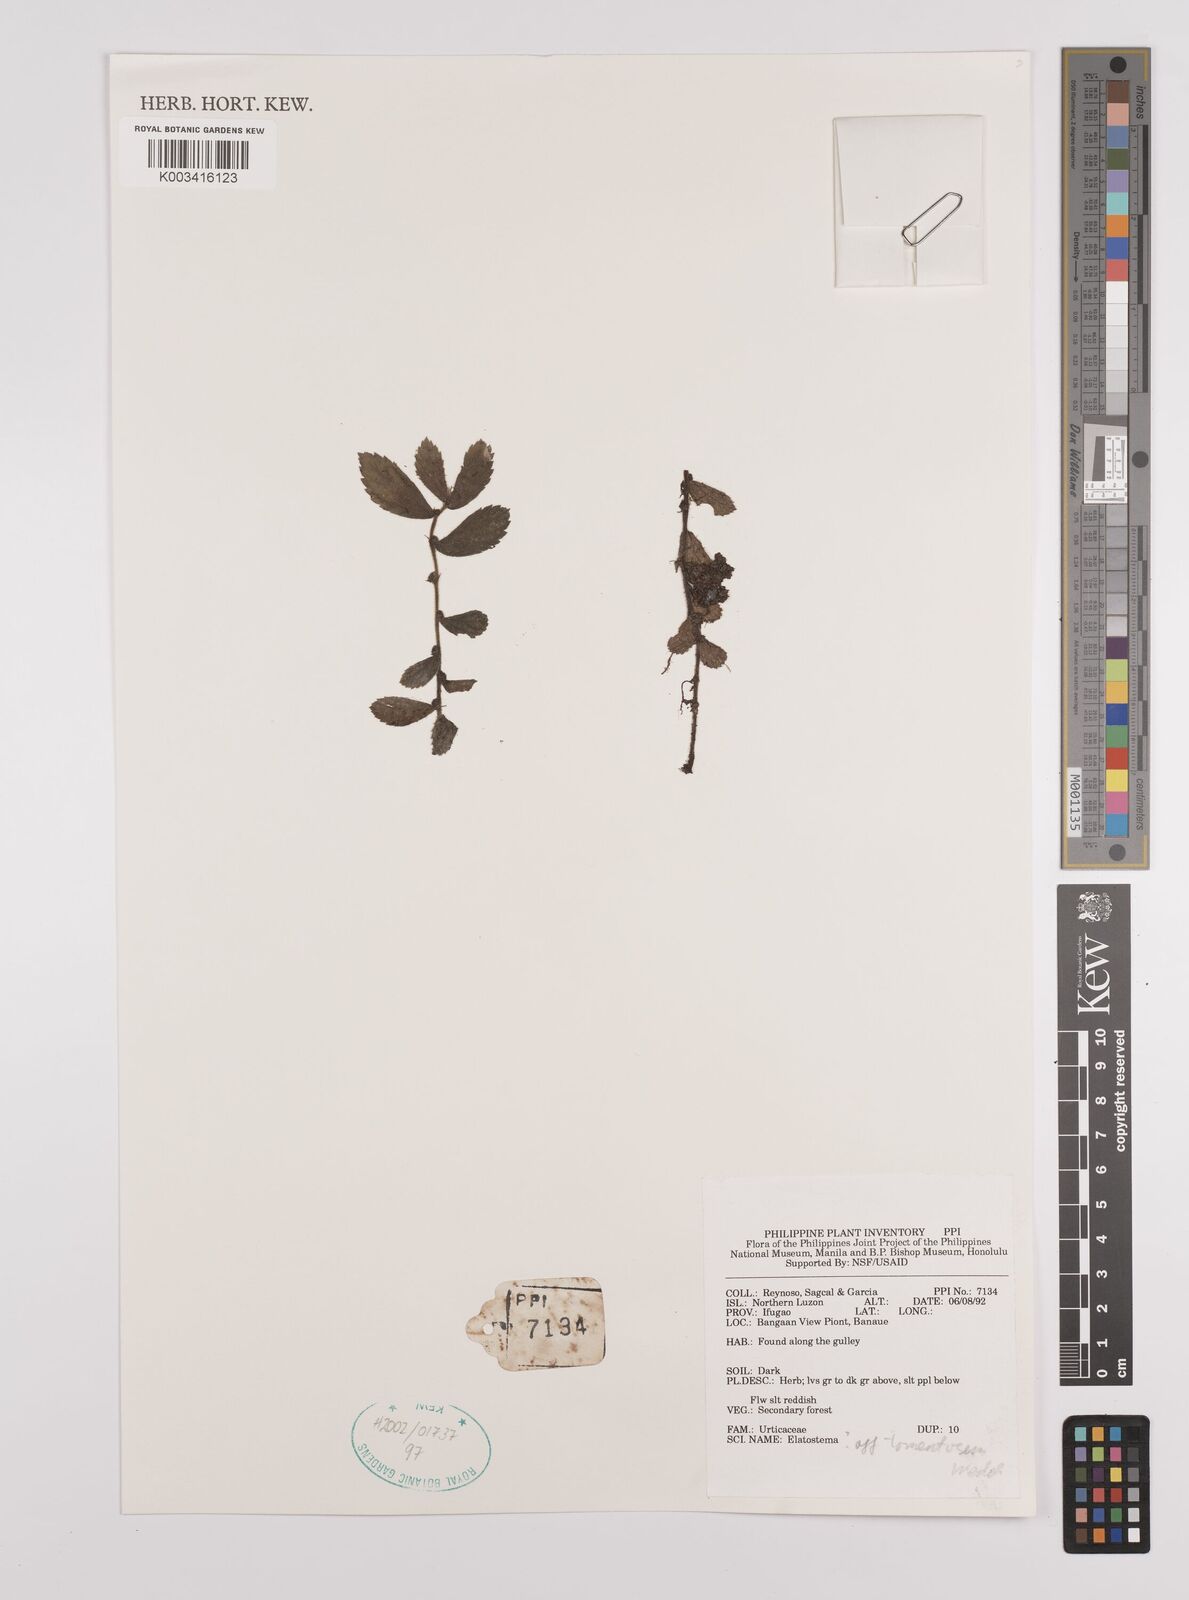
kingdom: Plantae
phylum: Tracheophyta
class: Magnoliopsida
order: Rosales
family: Urticaceae
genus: Elatostema
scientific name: Elatostema tomentosum
